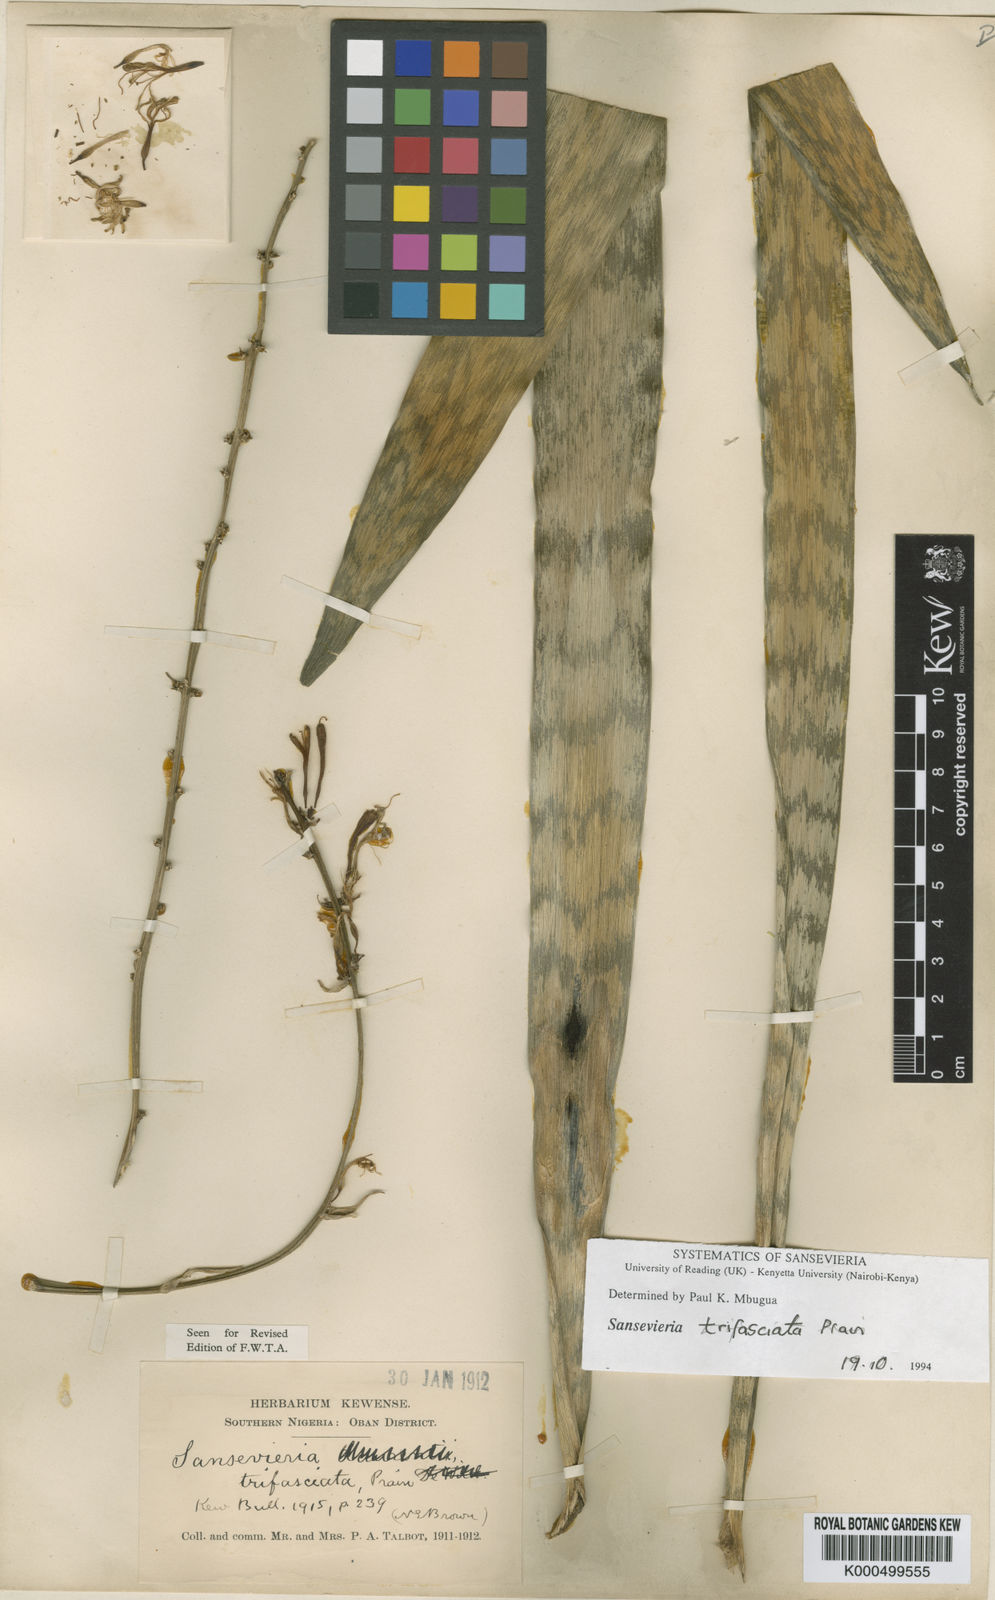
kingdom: Plantae
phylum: Tracheophyta
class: Liliopsida
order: Asparagales
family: Asparagaceae
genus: Dracaena
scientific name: Dracaena trifasciata
